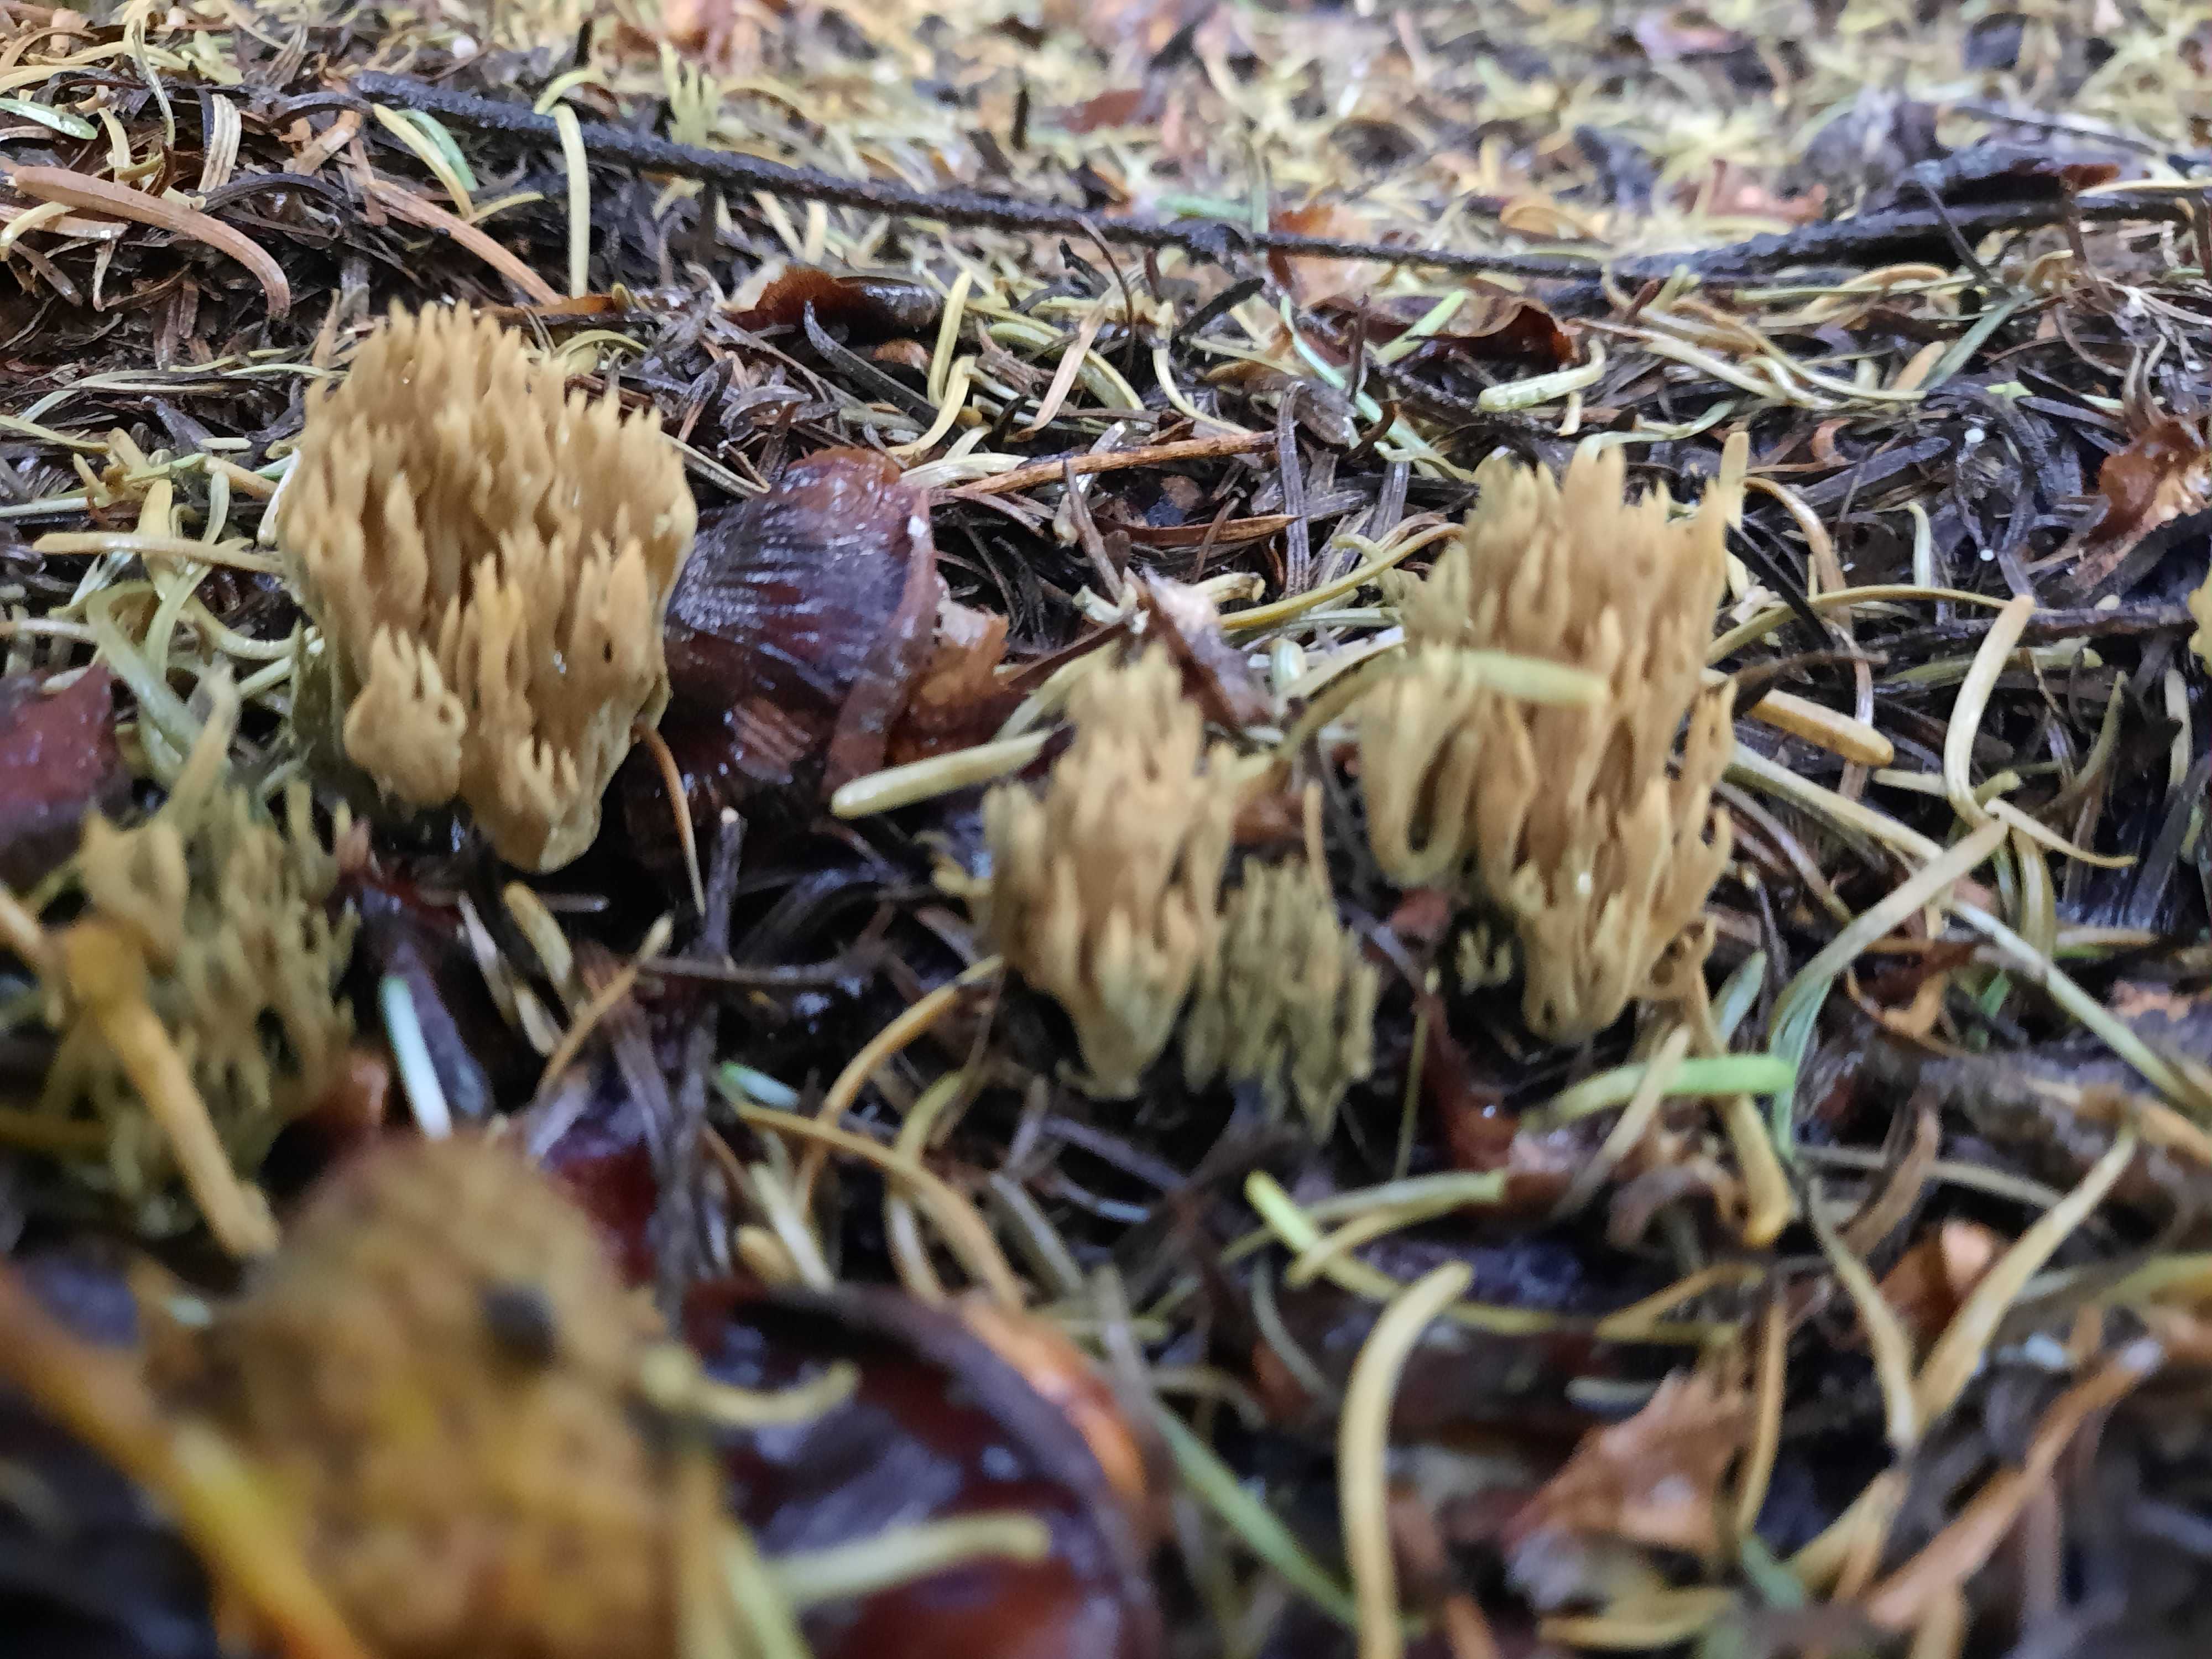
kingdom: Fungi
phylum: Basidiomycota
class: Agaricomycetes
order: Gomphales
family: Gomphaceae
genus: Phaeoclavulina
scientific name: Phaeoclavulina abietina
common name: gulgrøn koralsvamp
